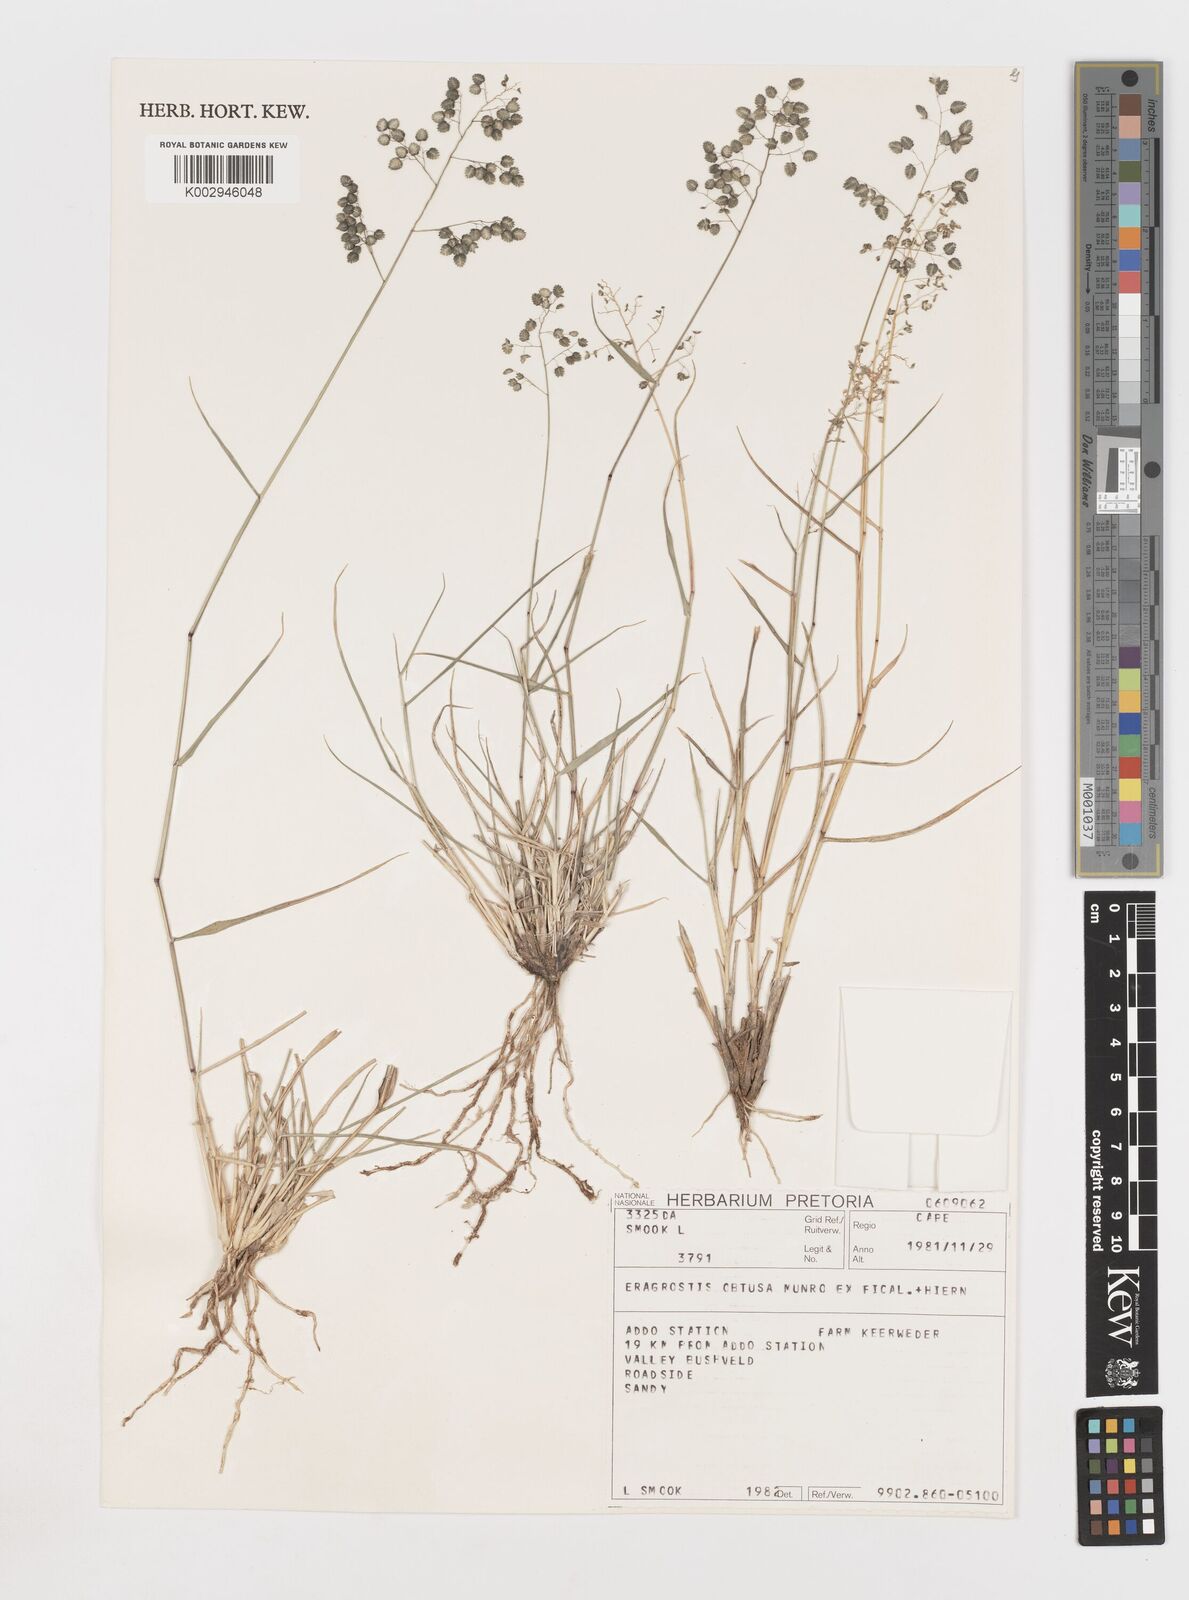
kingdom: Plantae
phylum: Tracheophyta
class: Liliopsida
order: Poales
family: Poaceae
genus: Eragrostis
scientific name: Eragrostis obtusa
